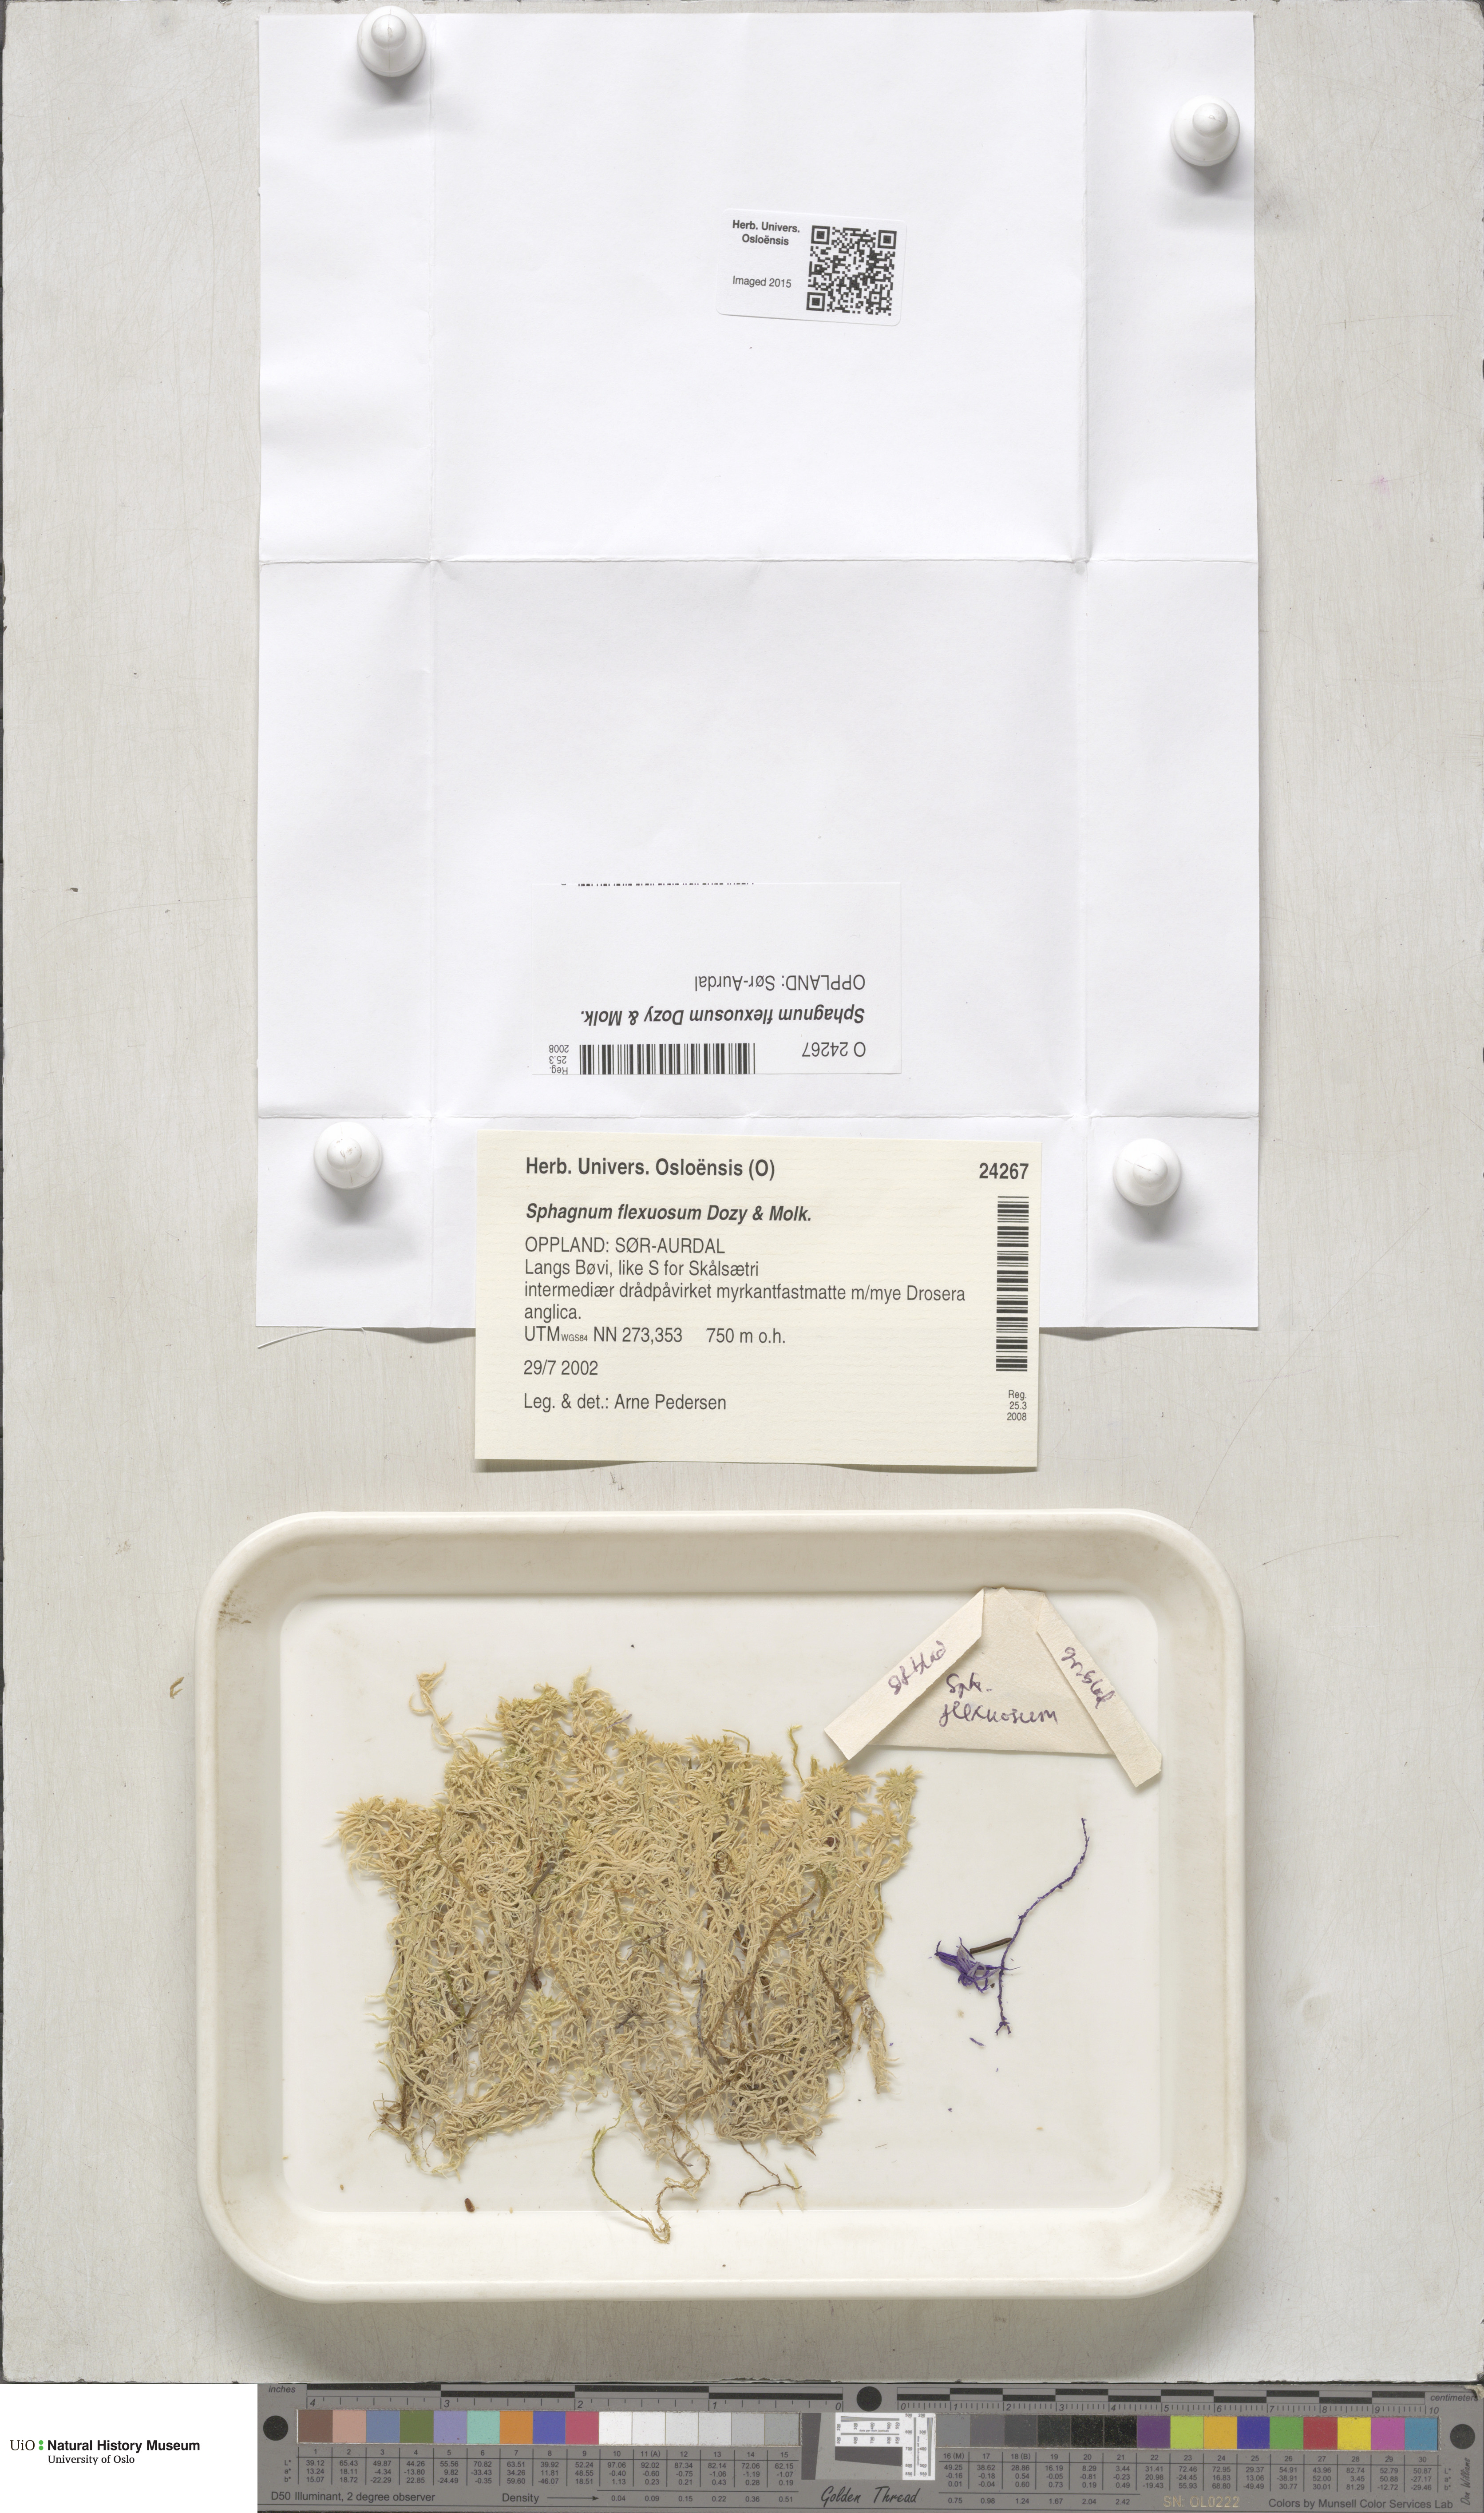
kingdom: Plantae
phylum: Bryophyta
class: Sphagnopsida
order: Sphagnales
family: Sphagnaceae
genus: Sphagnum
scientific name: Sphagnum flexuosum
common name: Flexible peat moss
